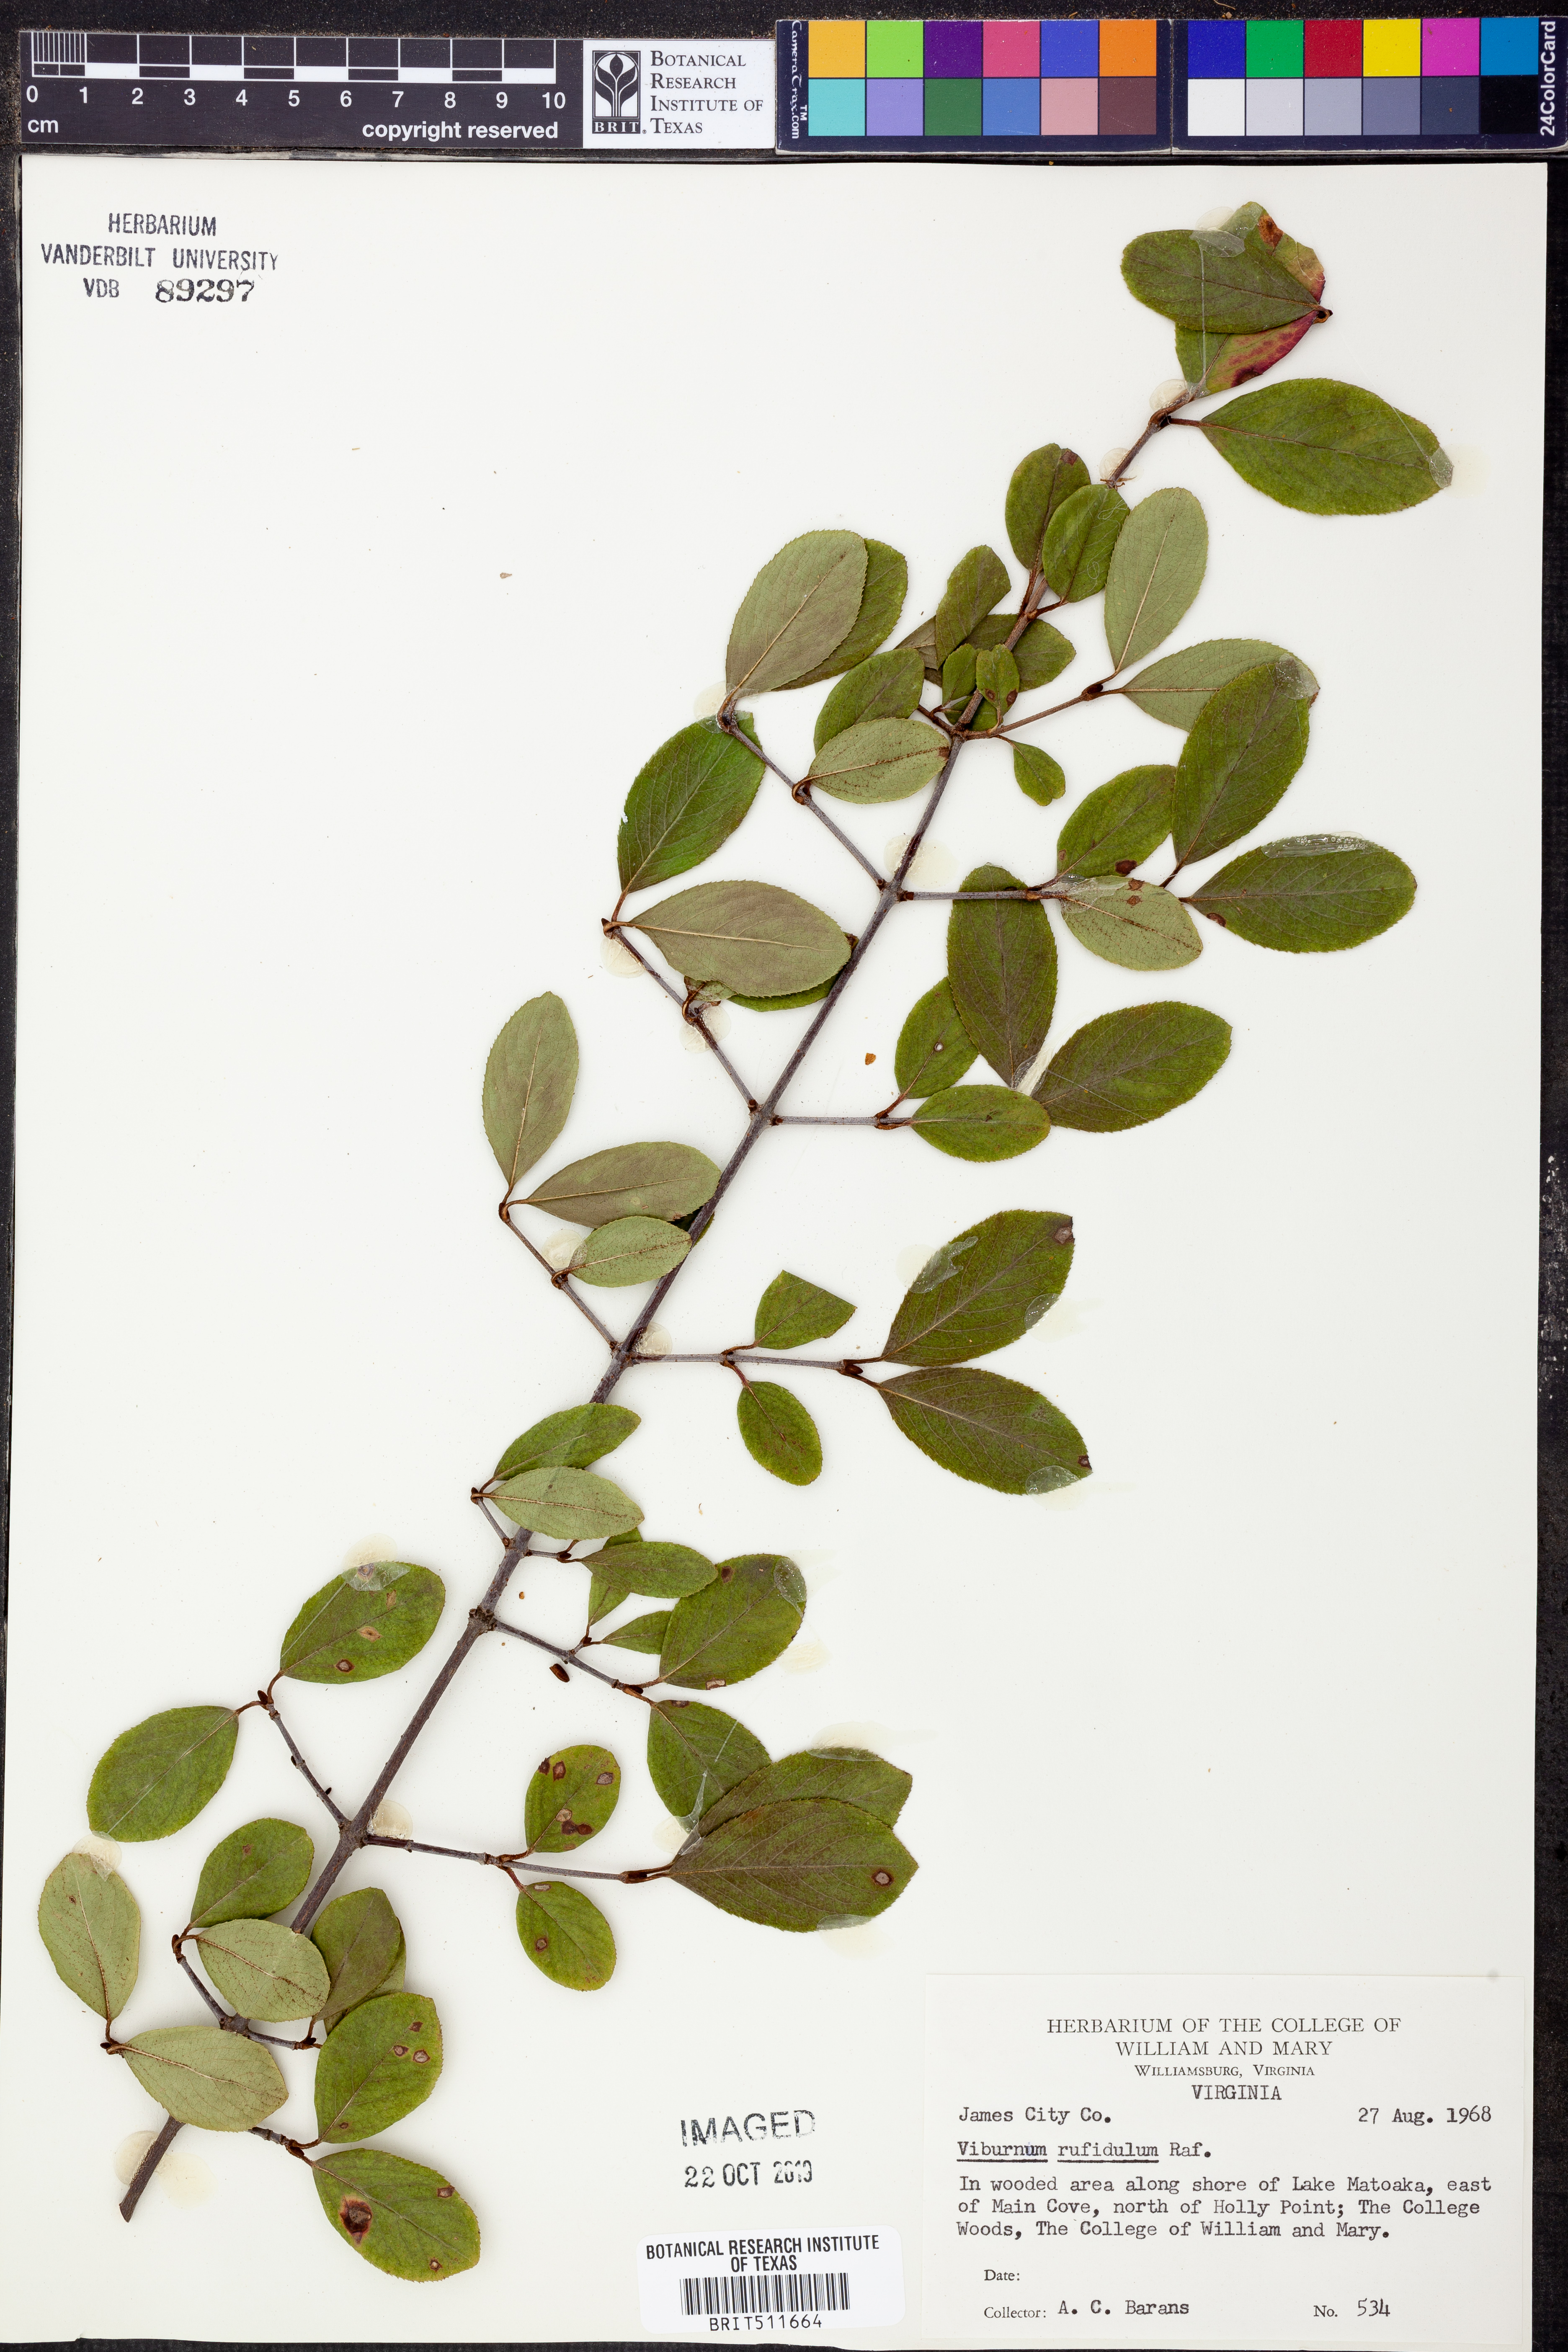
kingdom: Plantae
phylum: Tracheophyta
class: Magnoliopsida
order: Dipsacales
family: Viburnaceae
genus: Viburnum
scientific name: Viburnum rufidulum
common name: Blue haw
